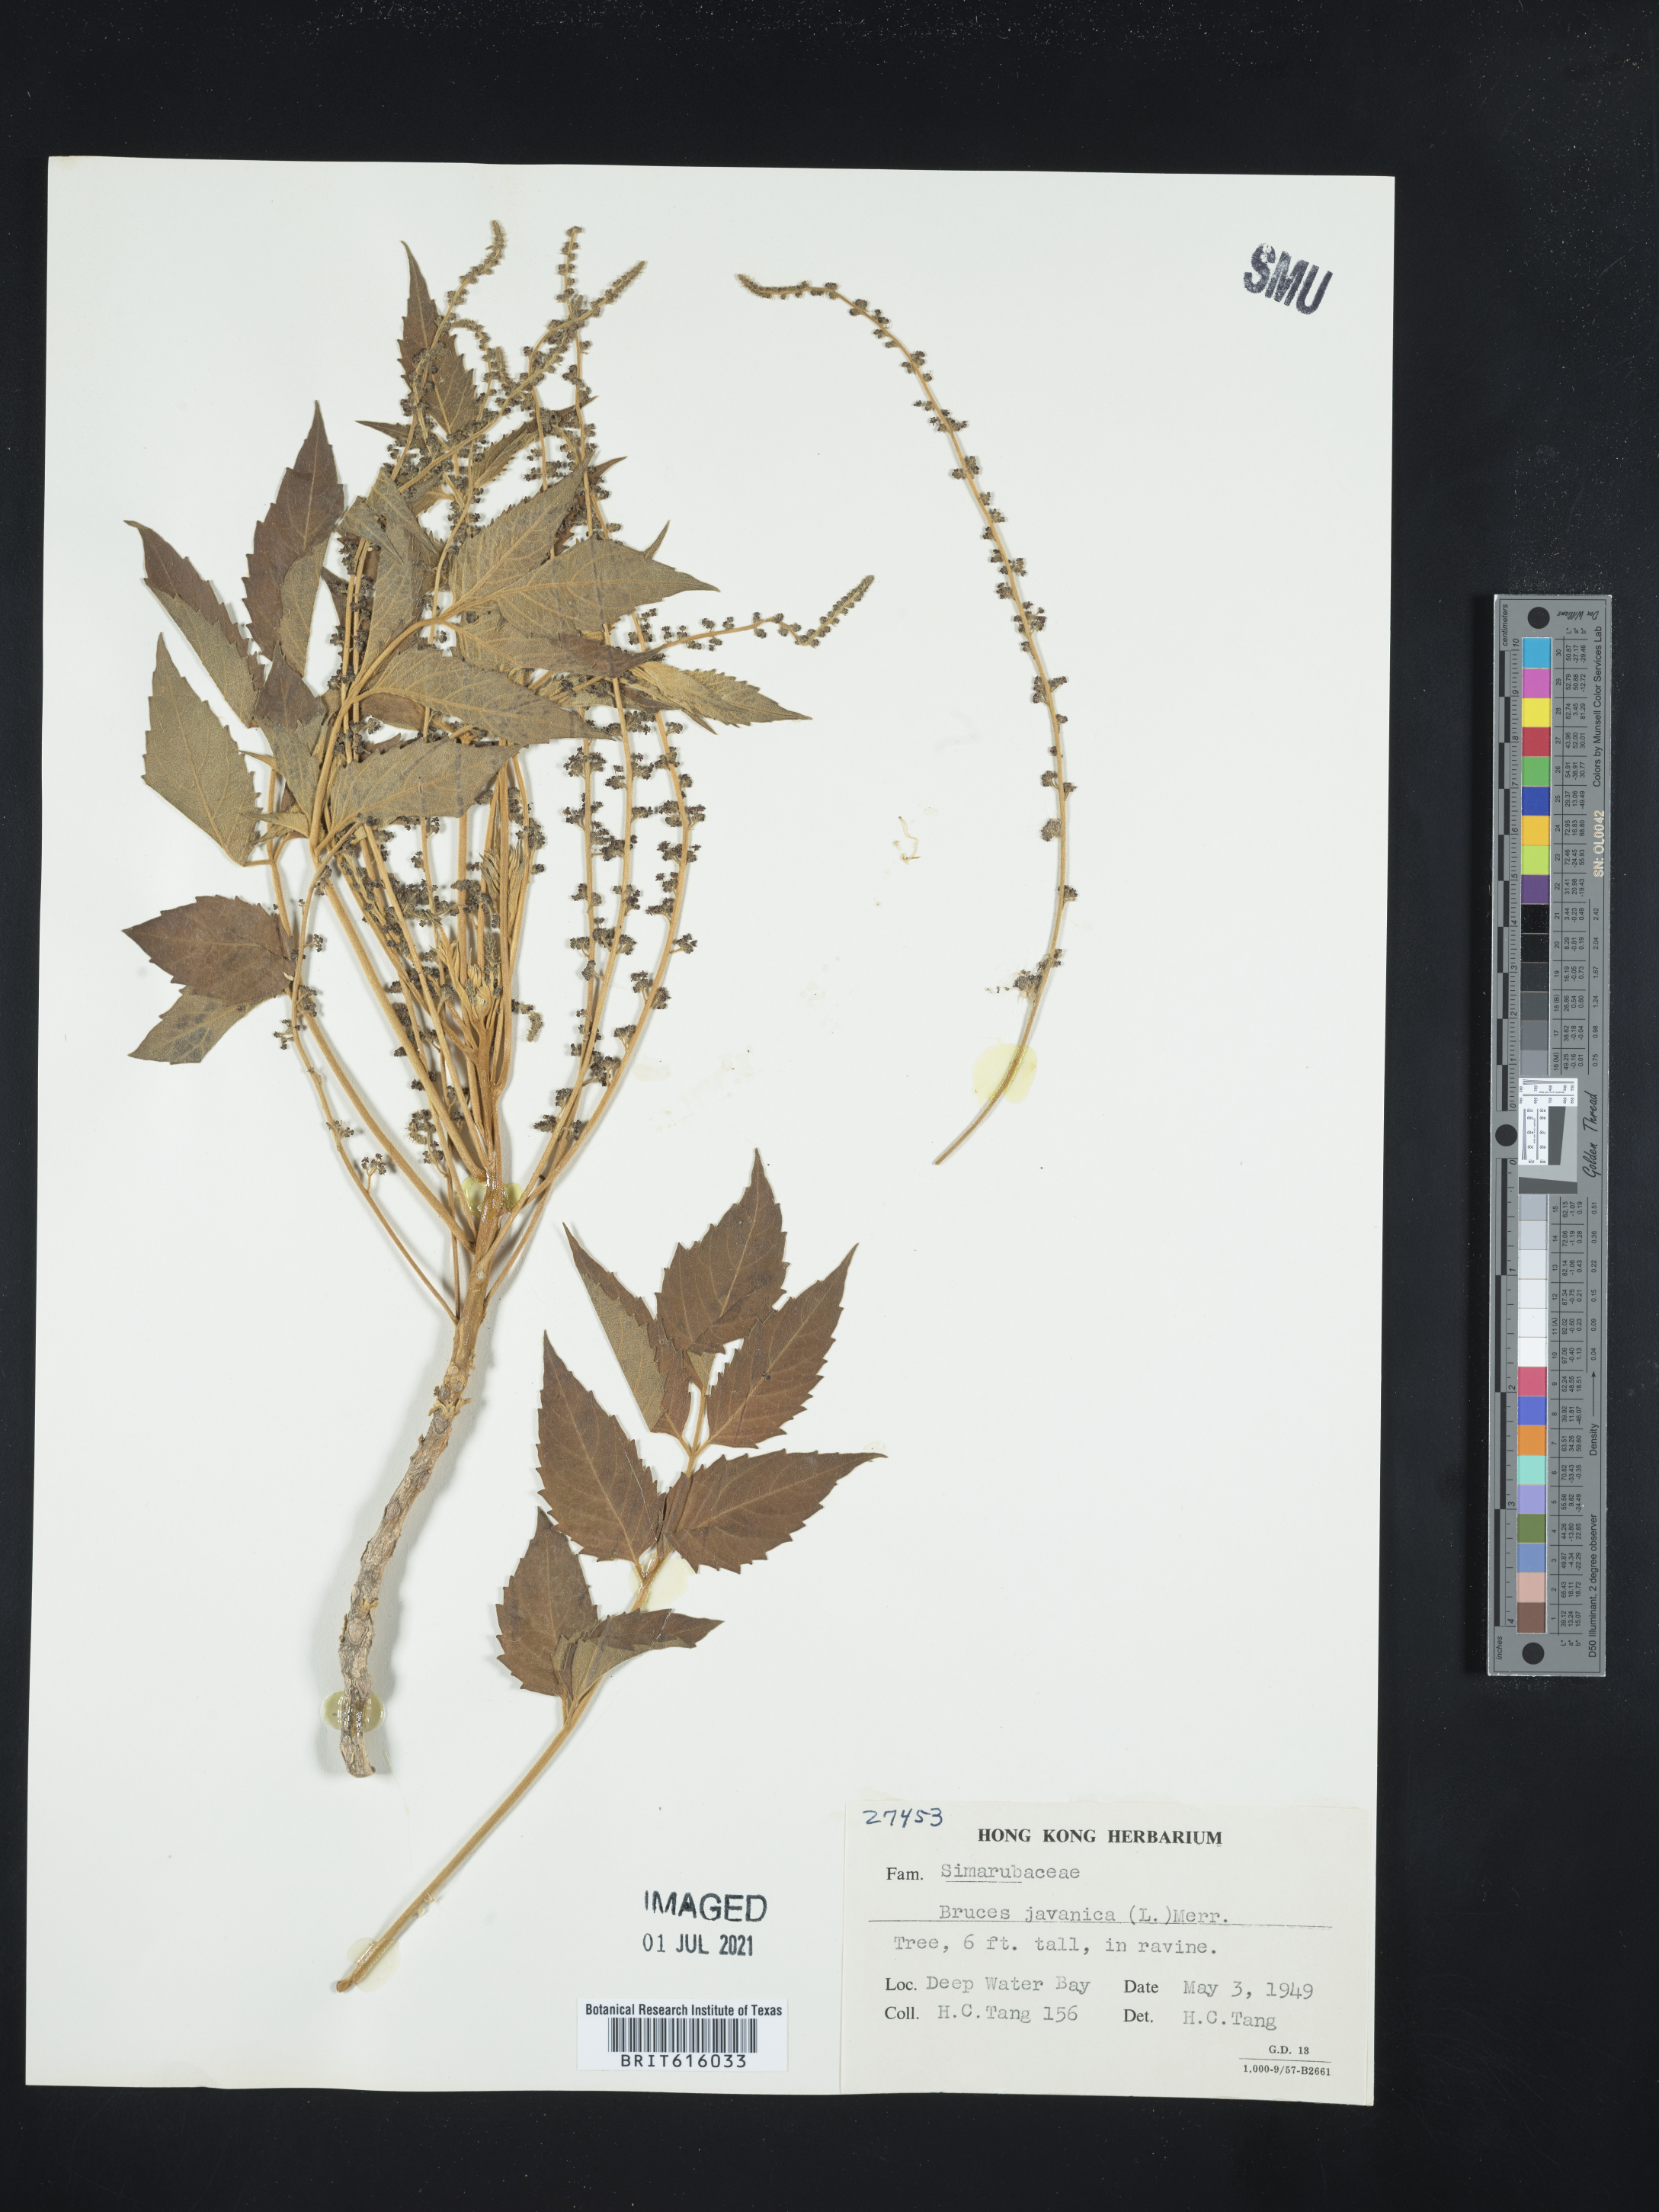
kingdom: Plantae
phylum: Tracheophyta
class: Magnoliopsida
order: Sapindales
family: Simaroubaceae
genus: Brucea
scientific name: Brucea javanica
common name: Macassar kernels
